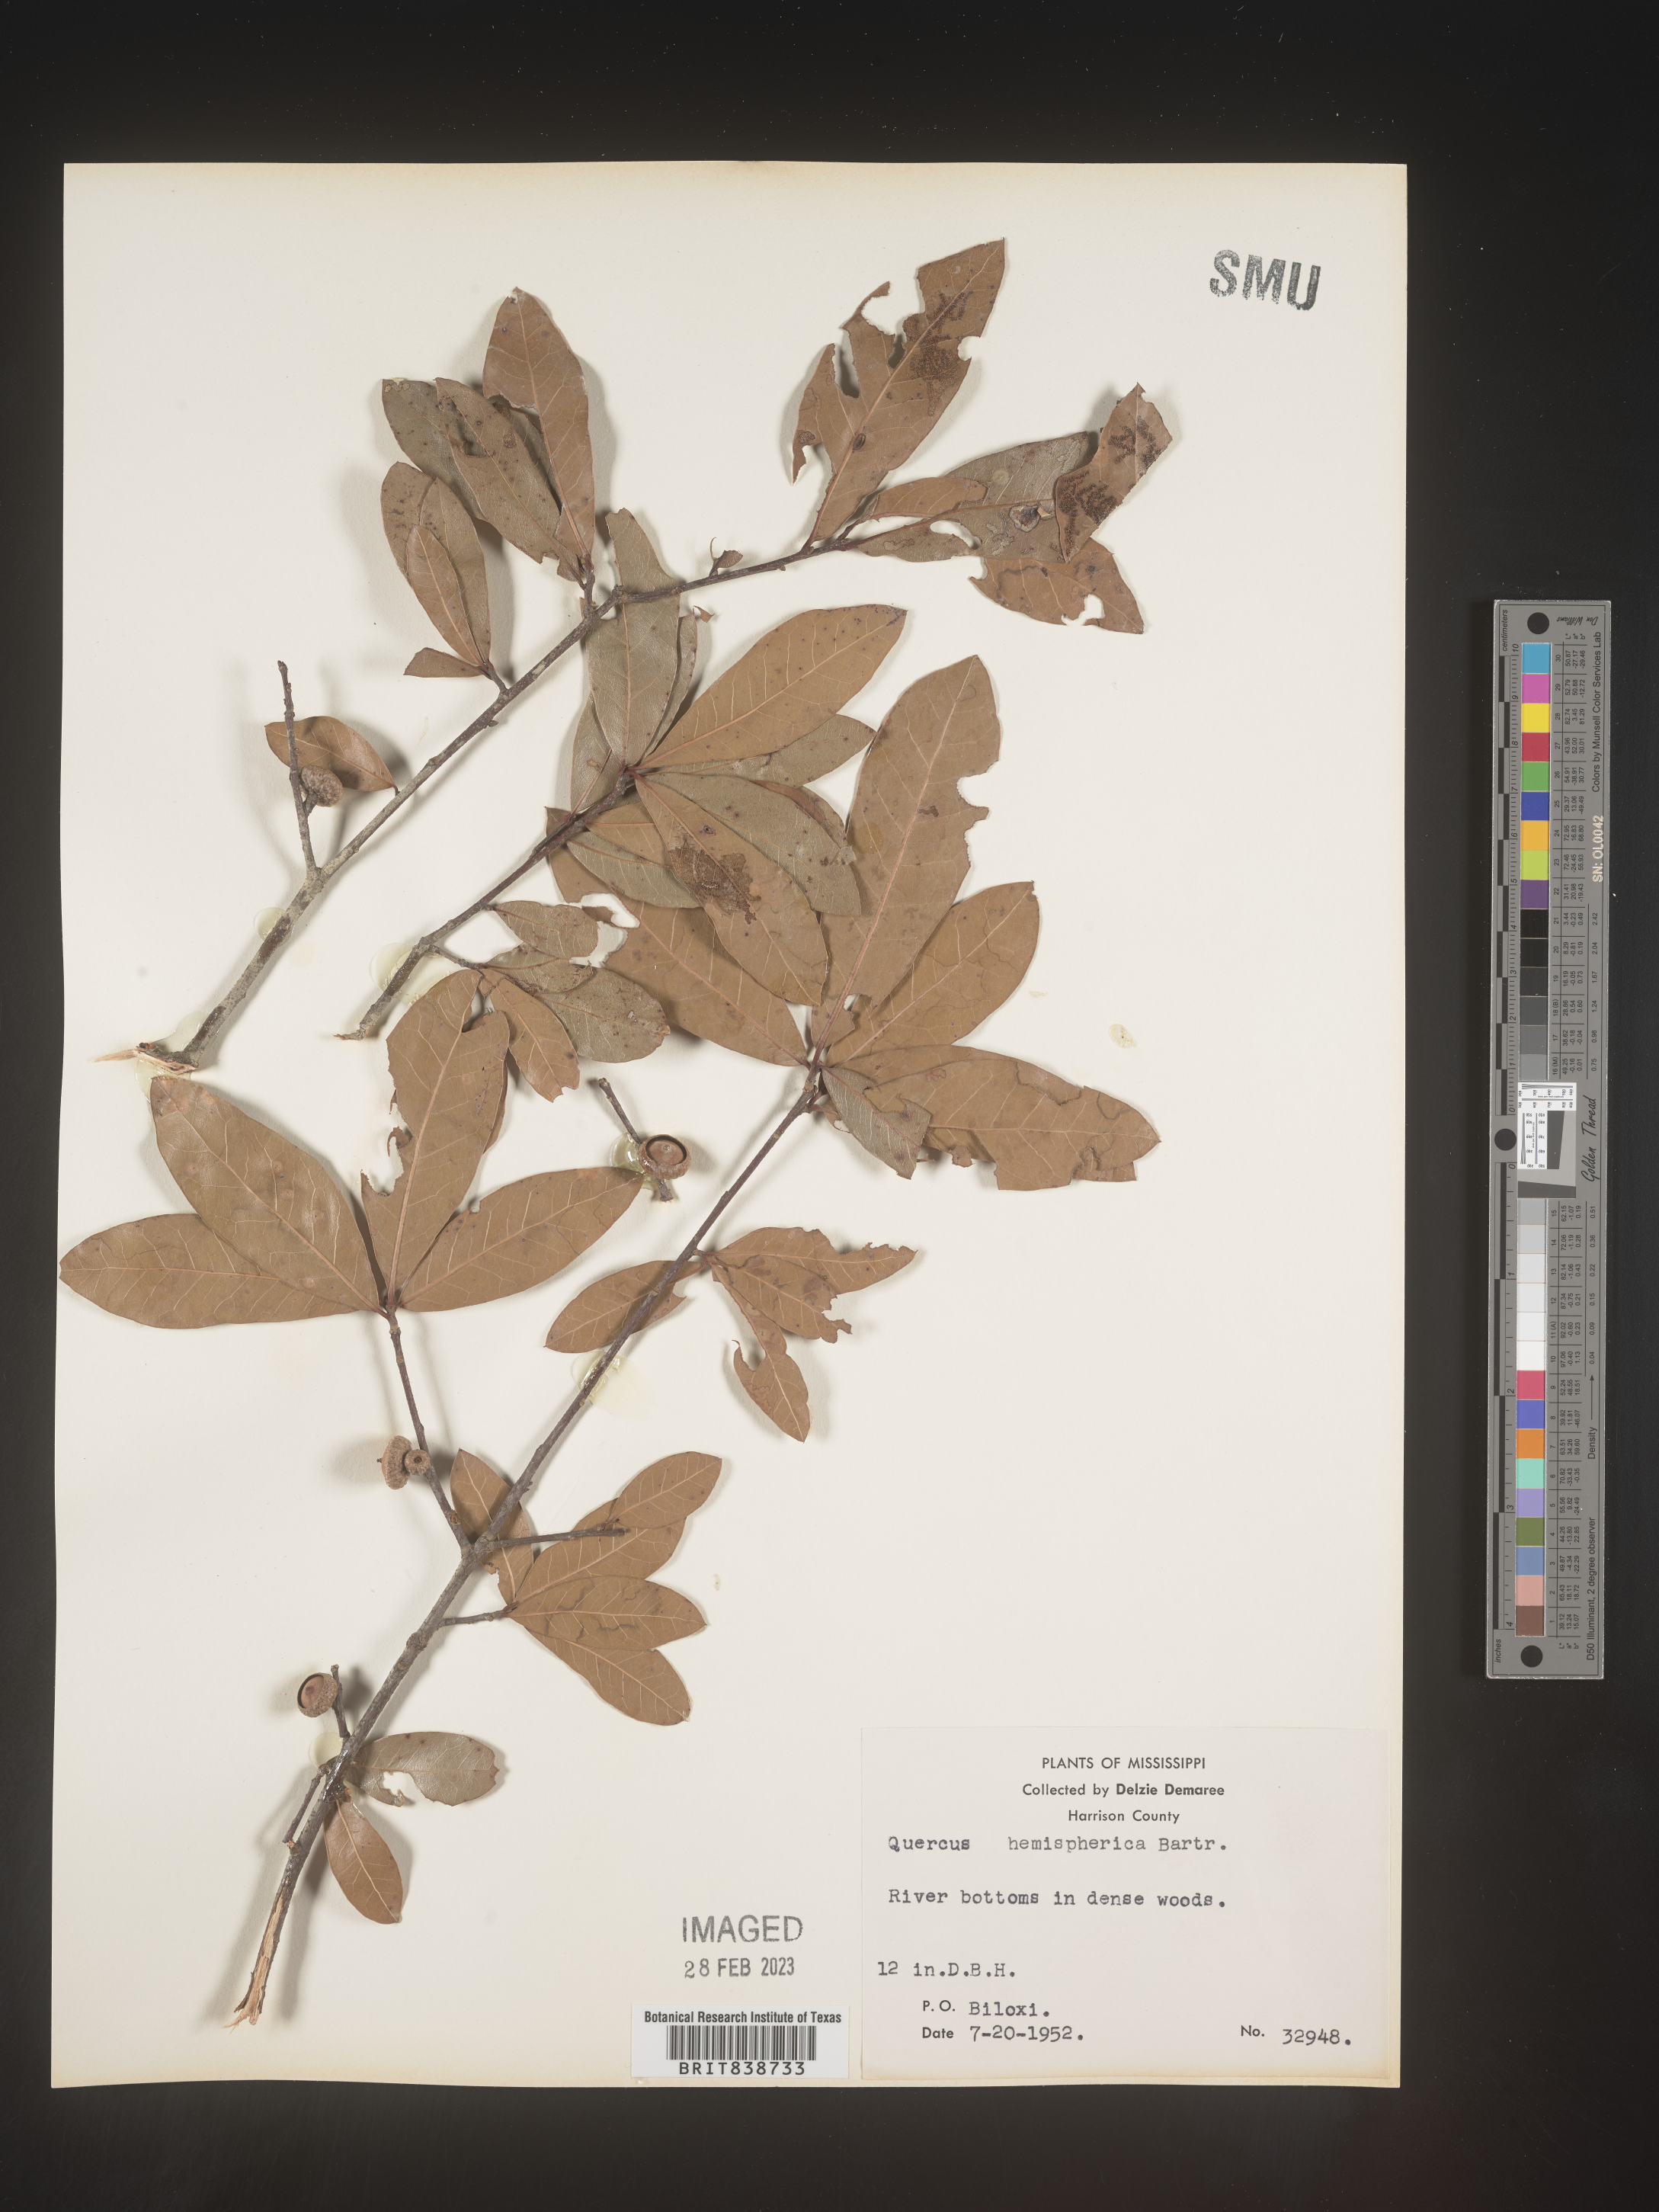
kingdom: Plantae
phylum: Tracheophyta
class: Magnoliopsida
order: Fagales
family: Fagaceae
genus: Quercus
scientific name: Quercus
